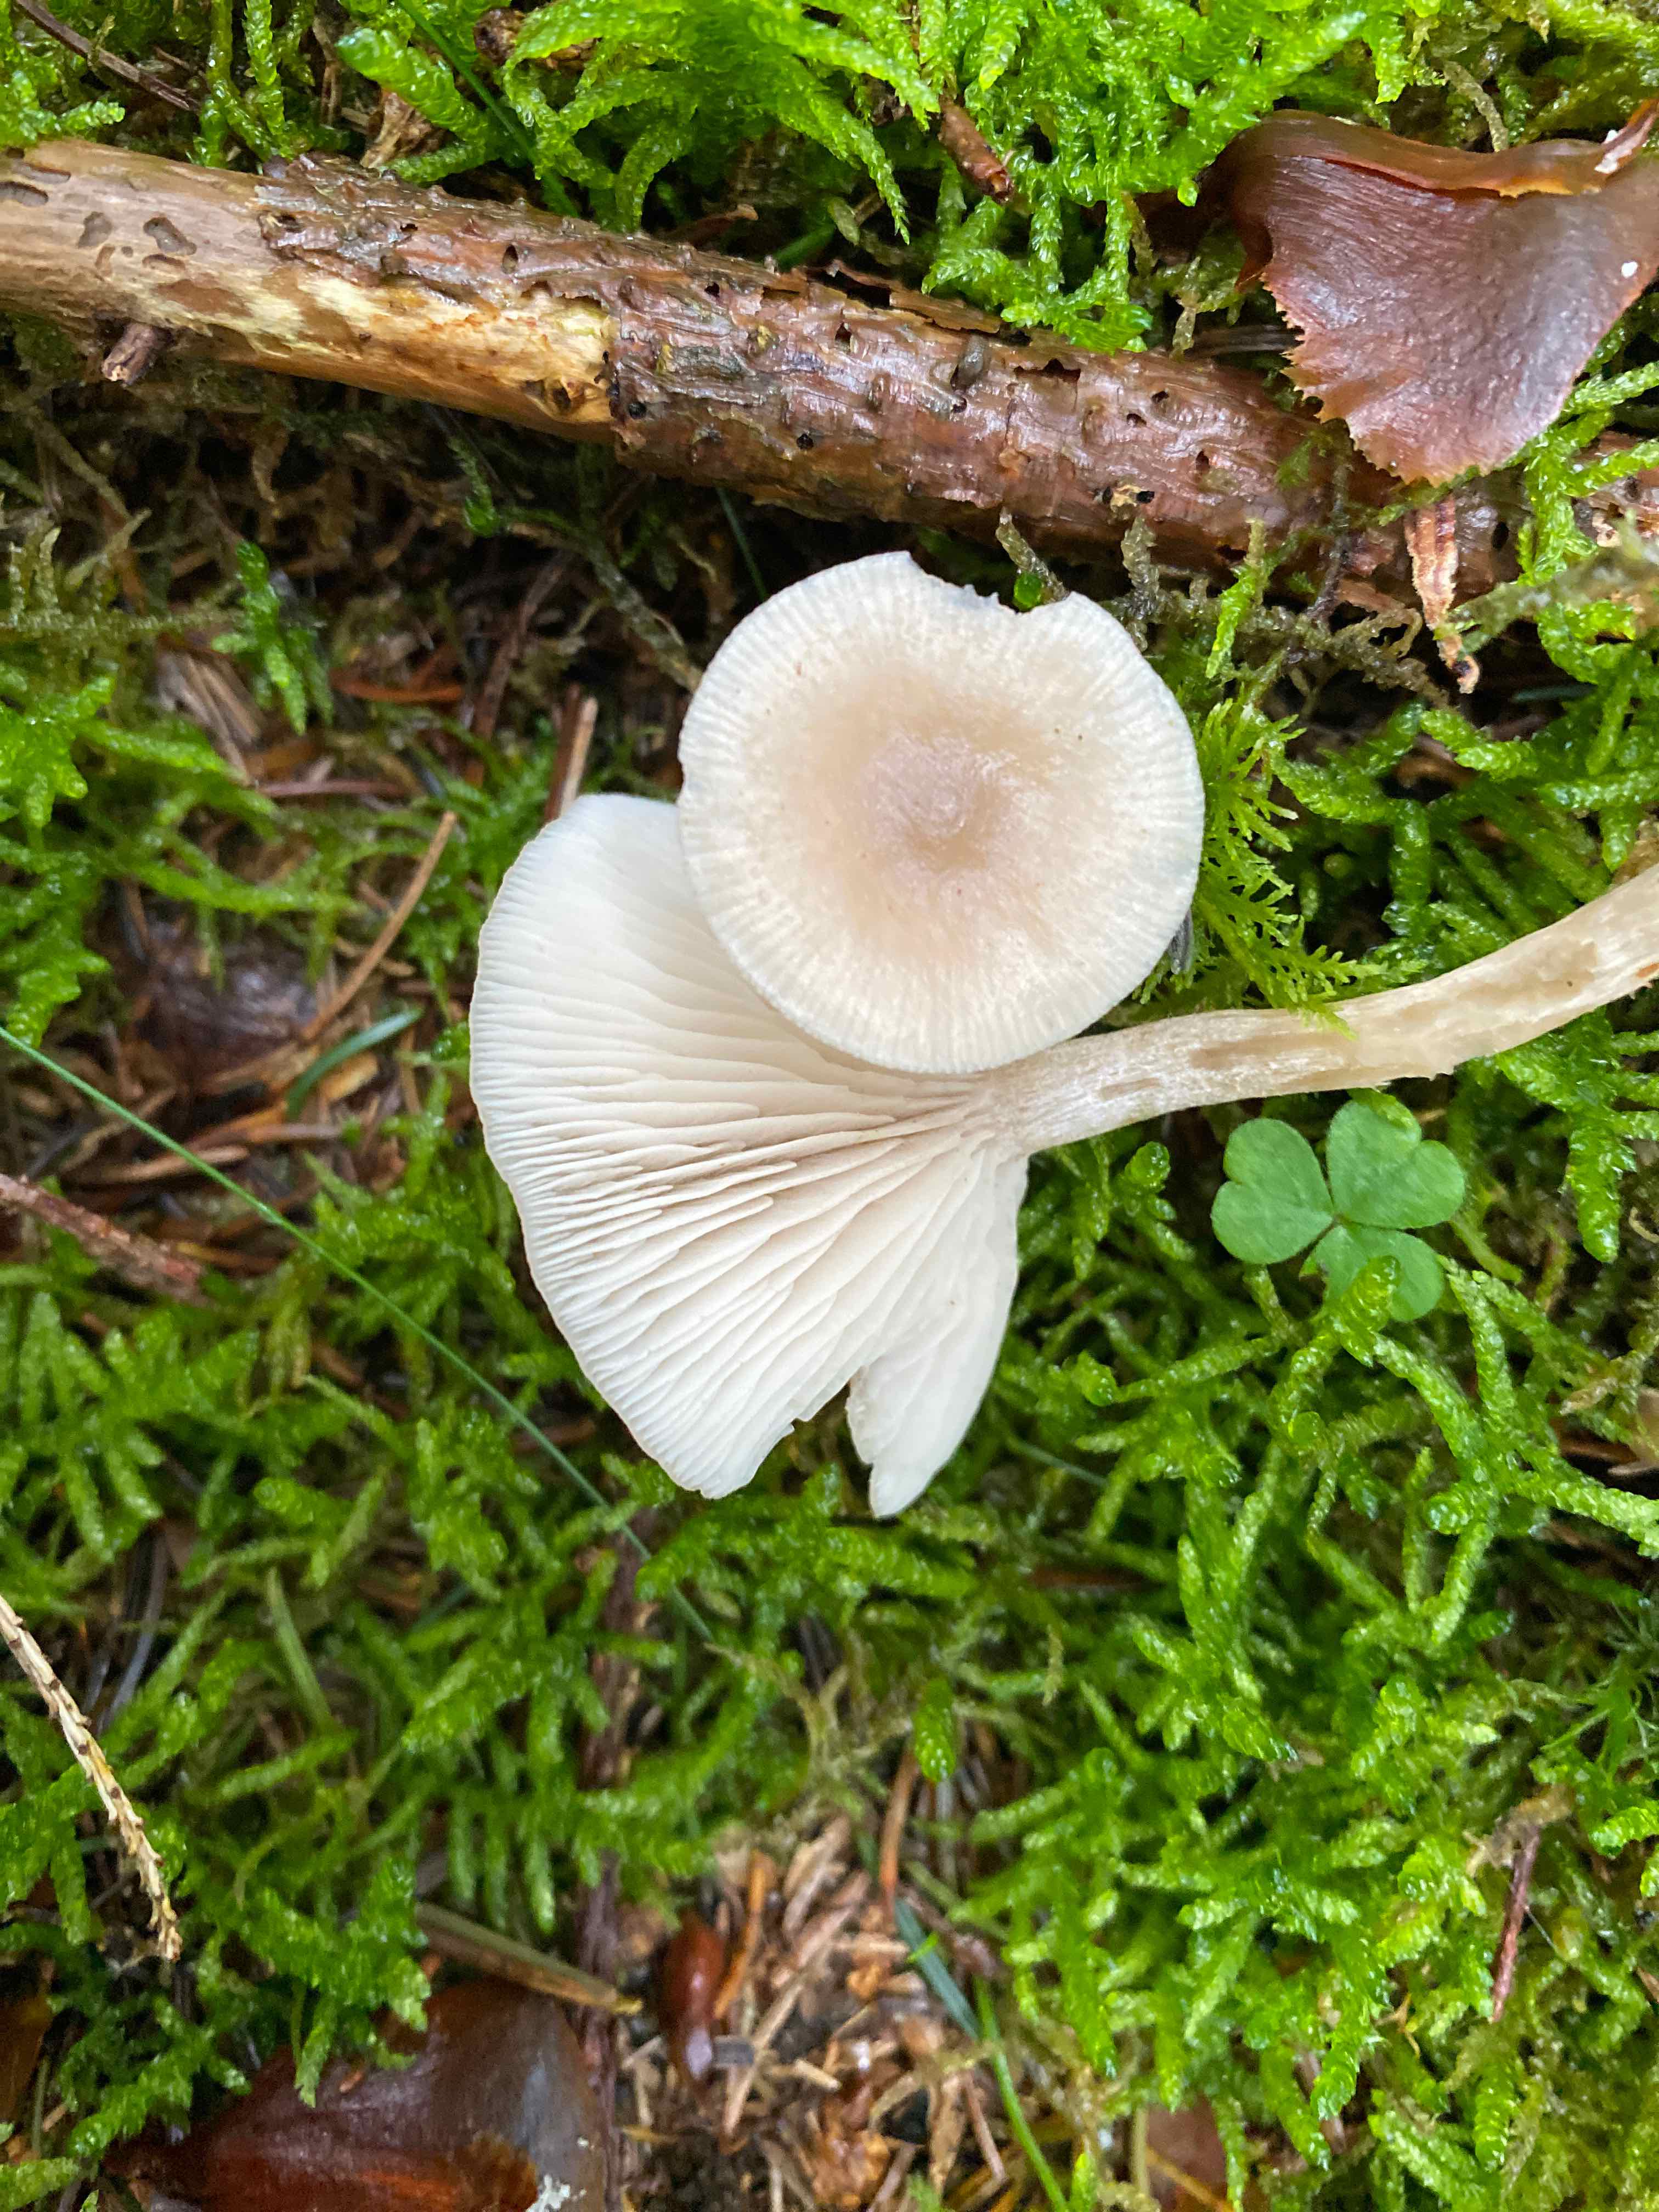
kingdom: Fungi
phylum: Basidiomycota
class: Agaricomycetes
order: Agaricales
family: Tricholomataceae
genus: Clitocybe
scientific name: Clitocybe fragrans
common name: vellugtende tragthat
